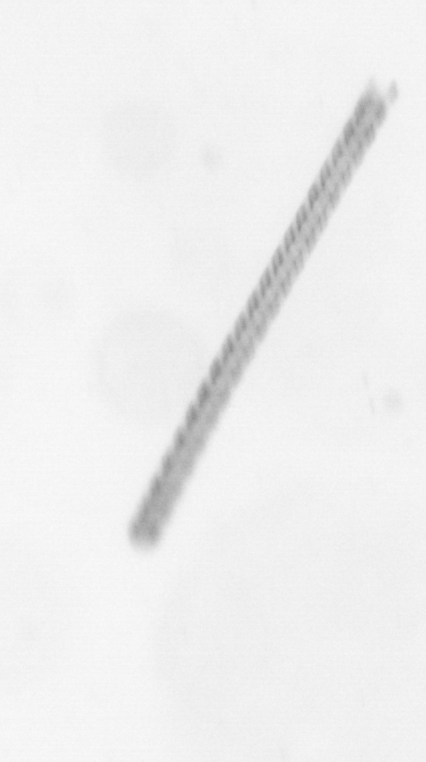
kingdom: Chromista
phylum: Ochrophyta
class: Bacillariophyceae
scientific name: Bacillariophyceae
